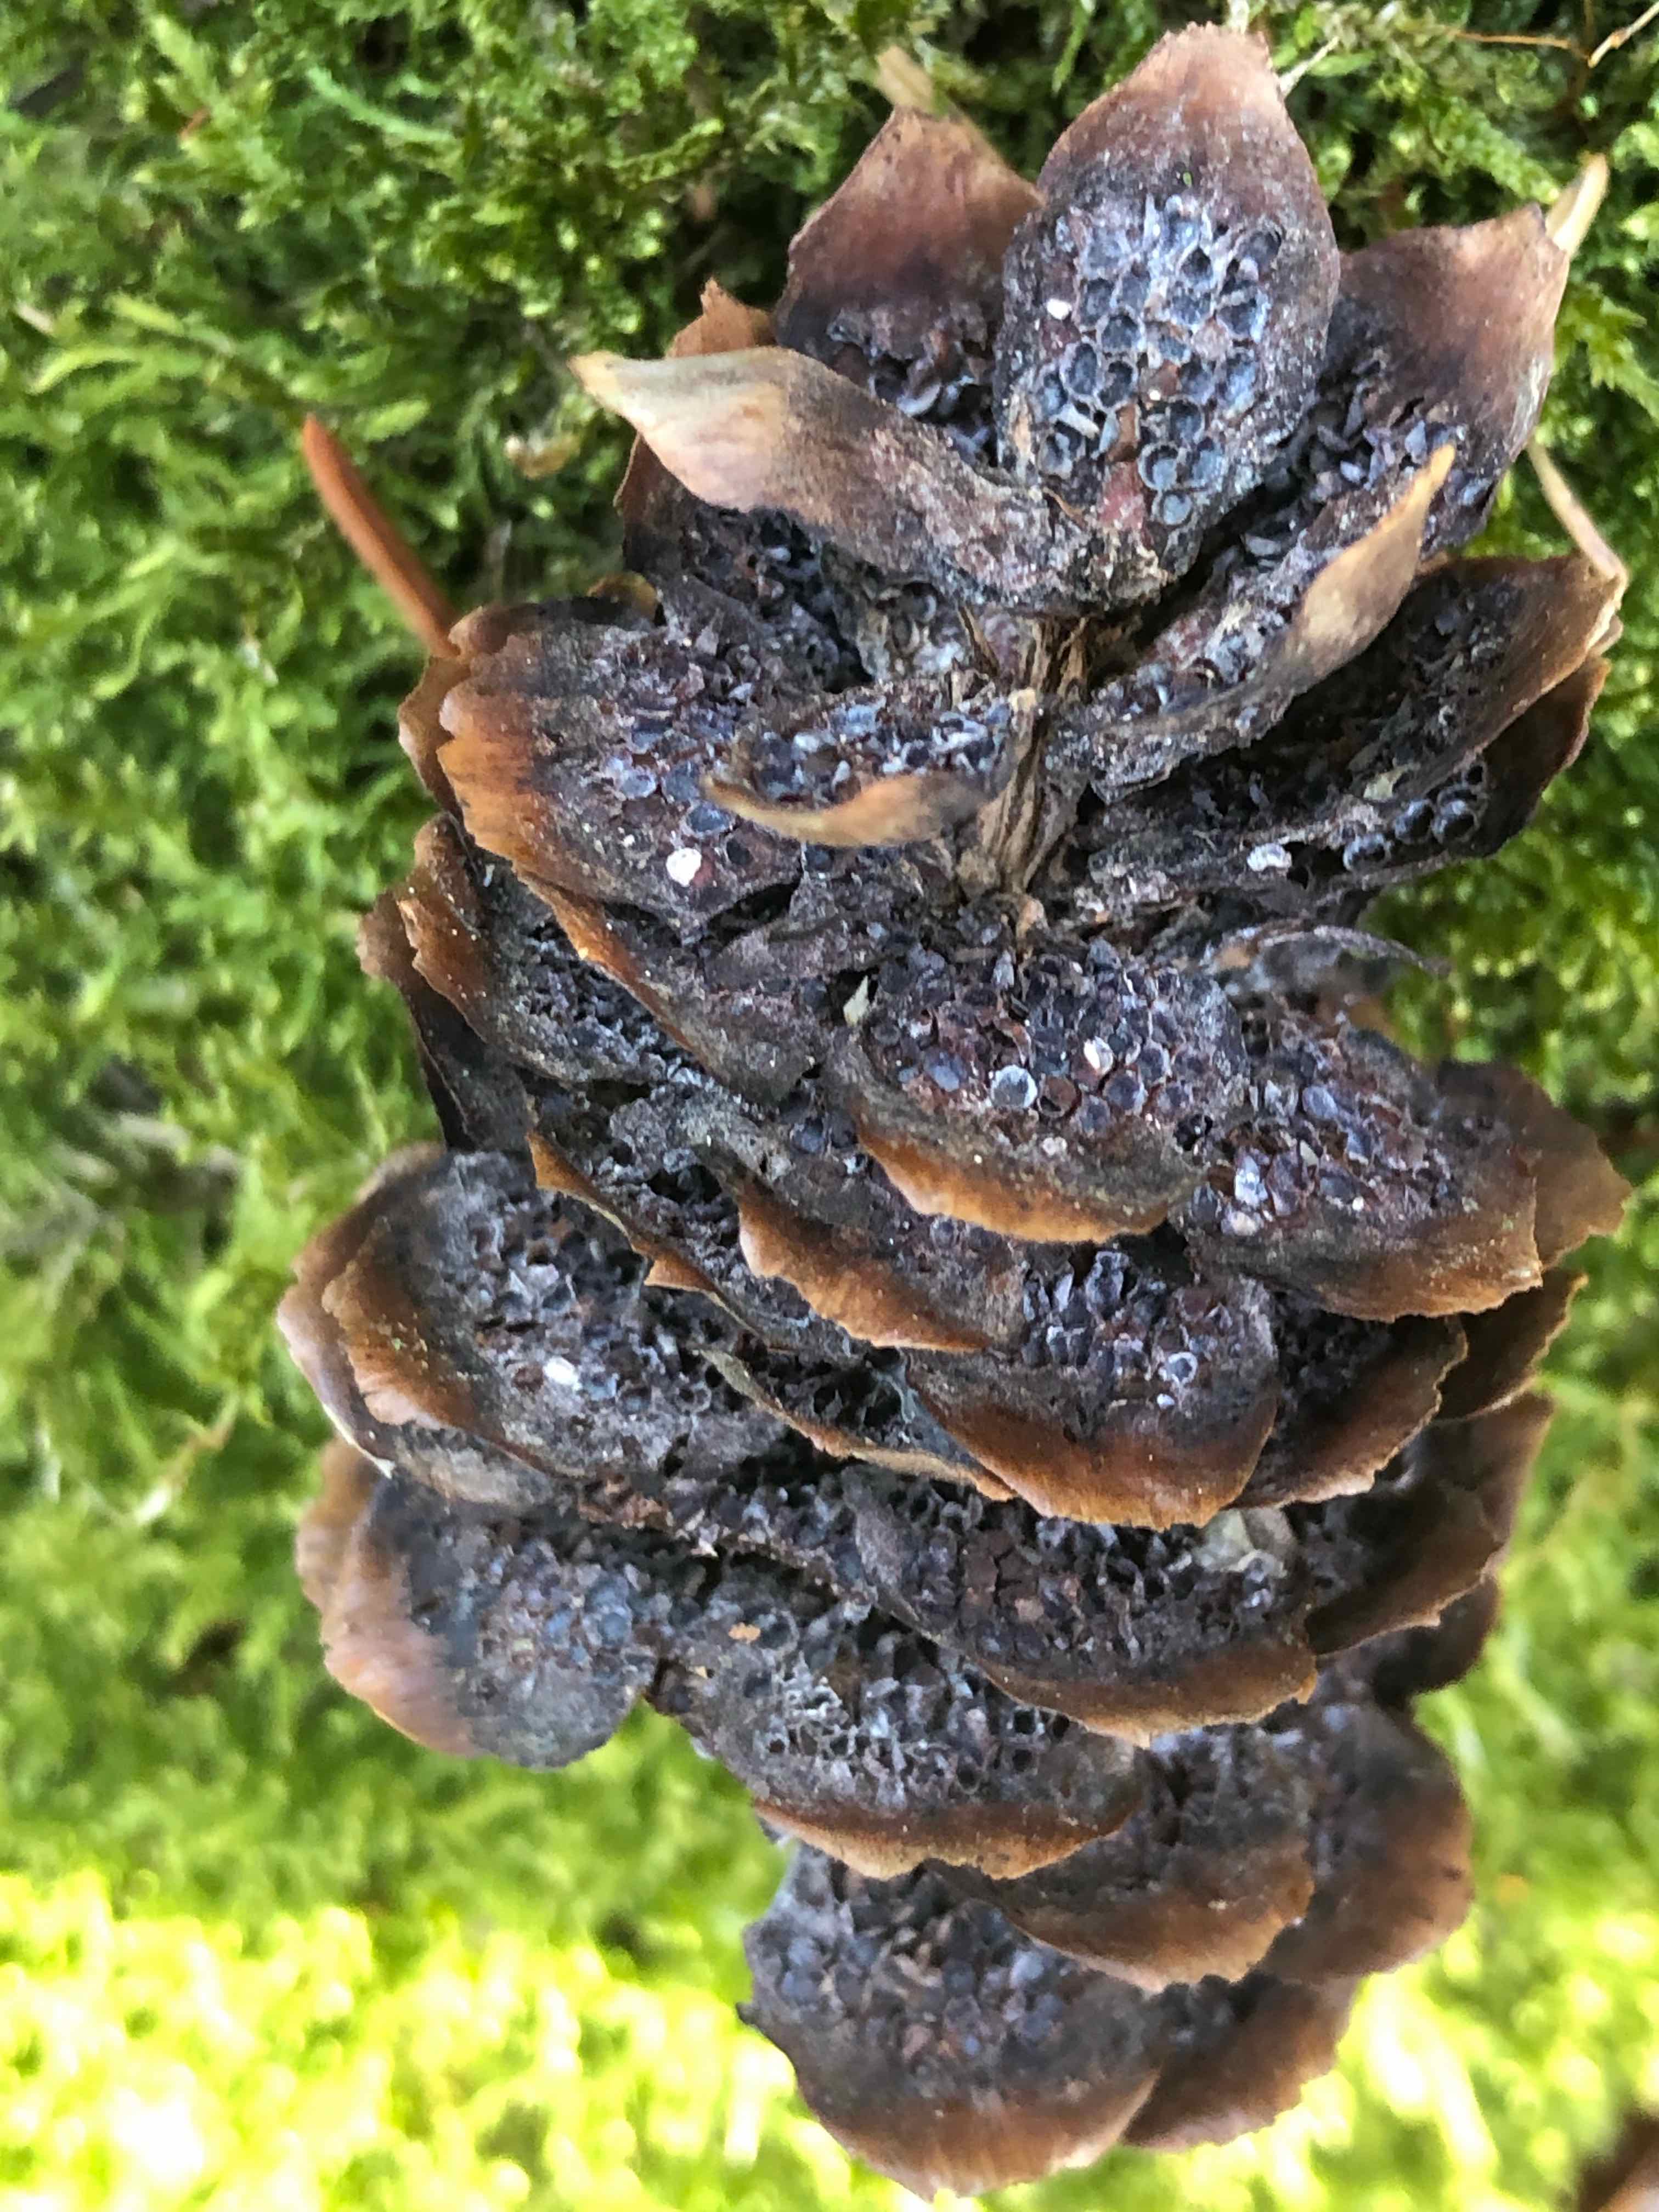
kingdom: Fungi
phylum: Basidiomycota
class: Pucciniomycetes
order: Pucciniales
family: Pucciniastraceae
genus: Thekopsora
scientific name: Thekopsora areolata
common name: grankogle-nålerust
